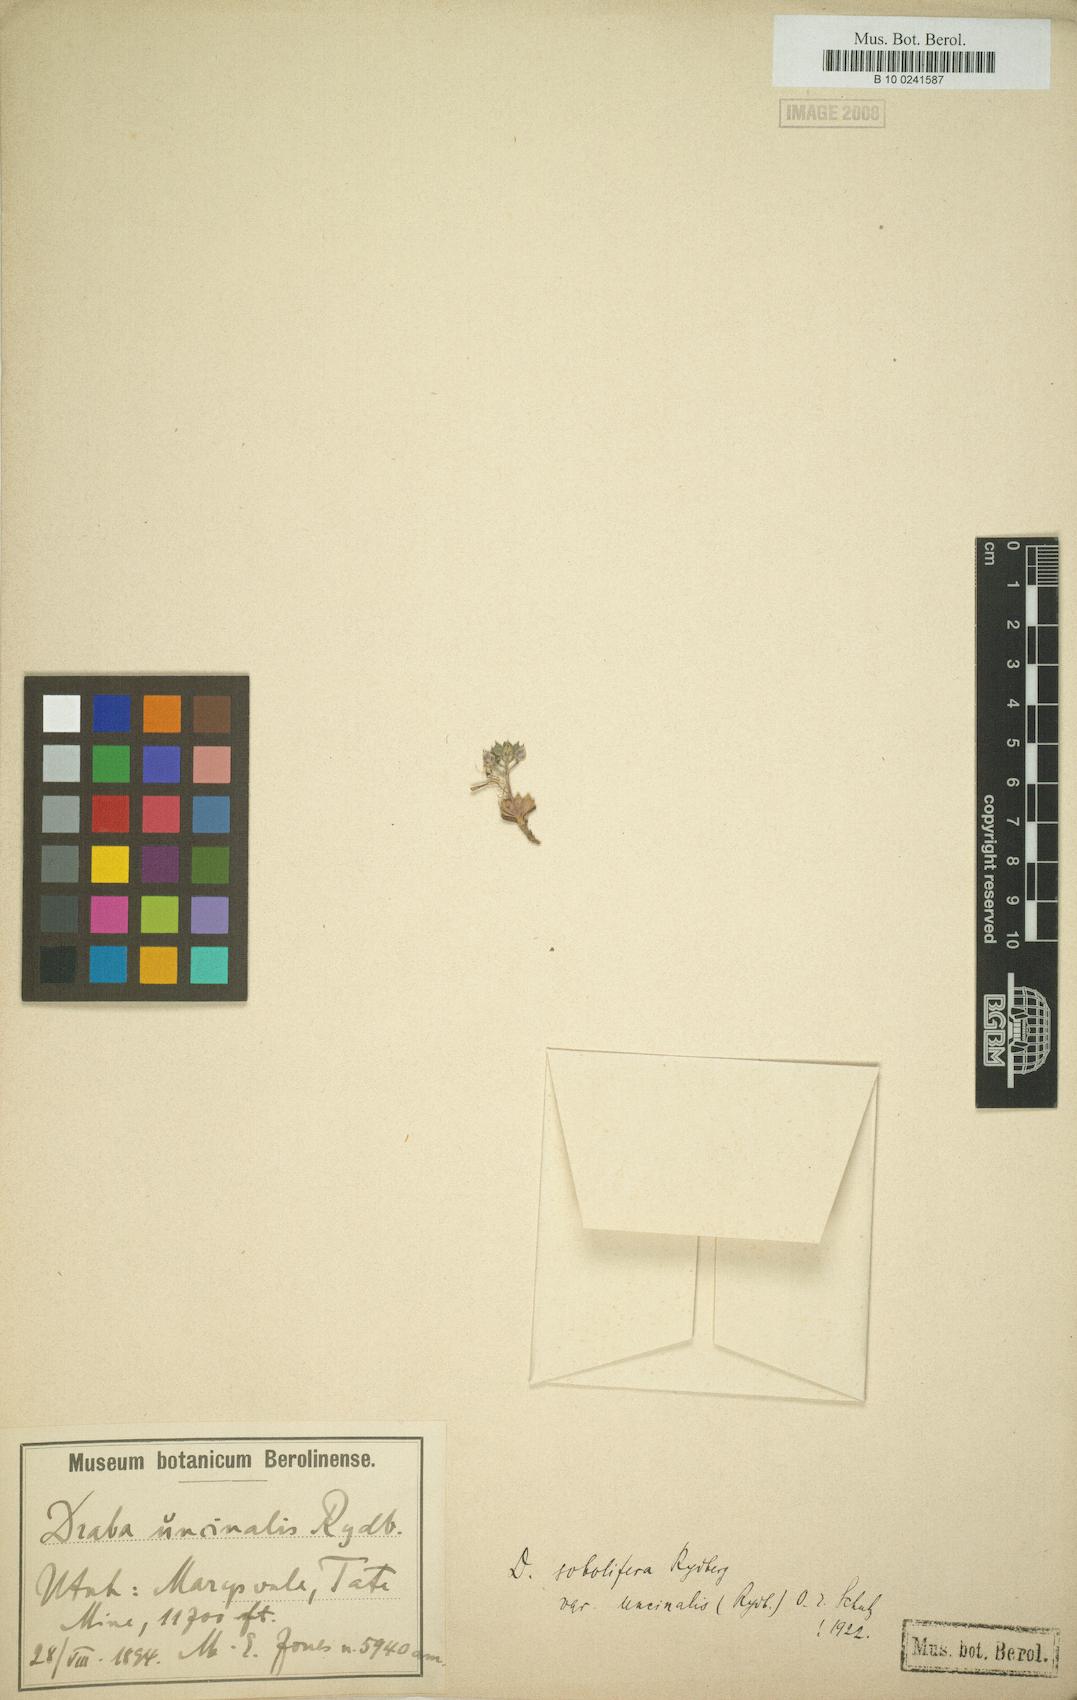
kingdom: Plantae
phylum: Tracheophyta
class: Magnoliopsida
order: Brassicales
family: Brassicaceae
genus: Draba
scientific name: Draba sobolifera
